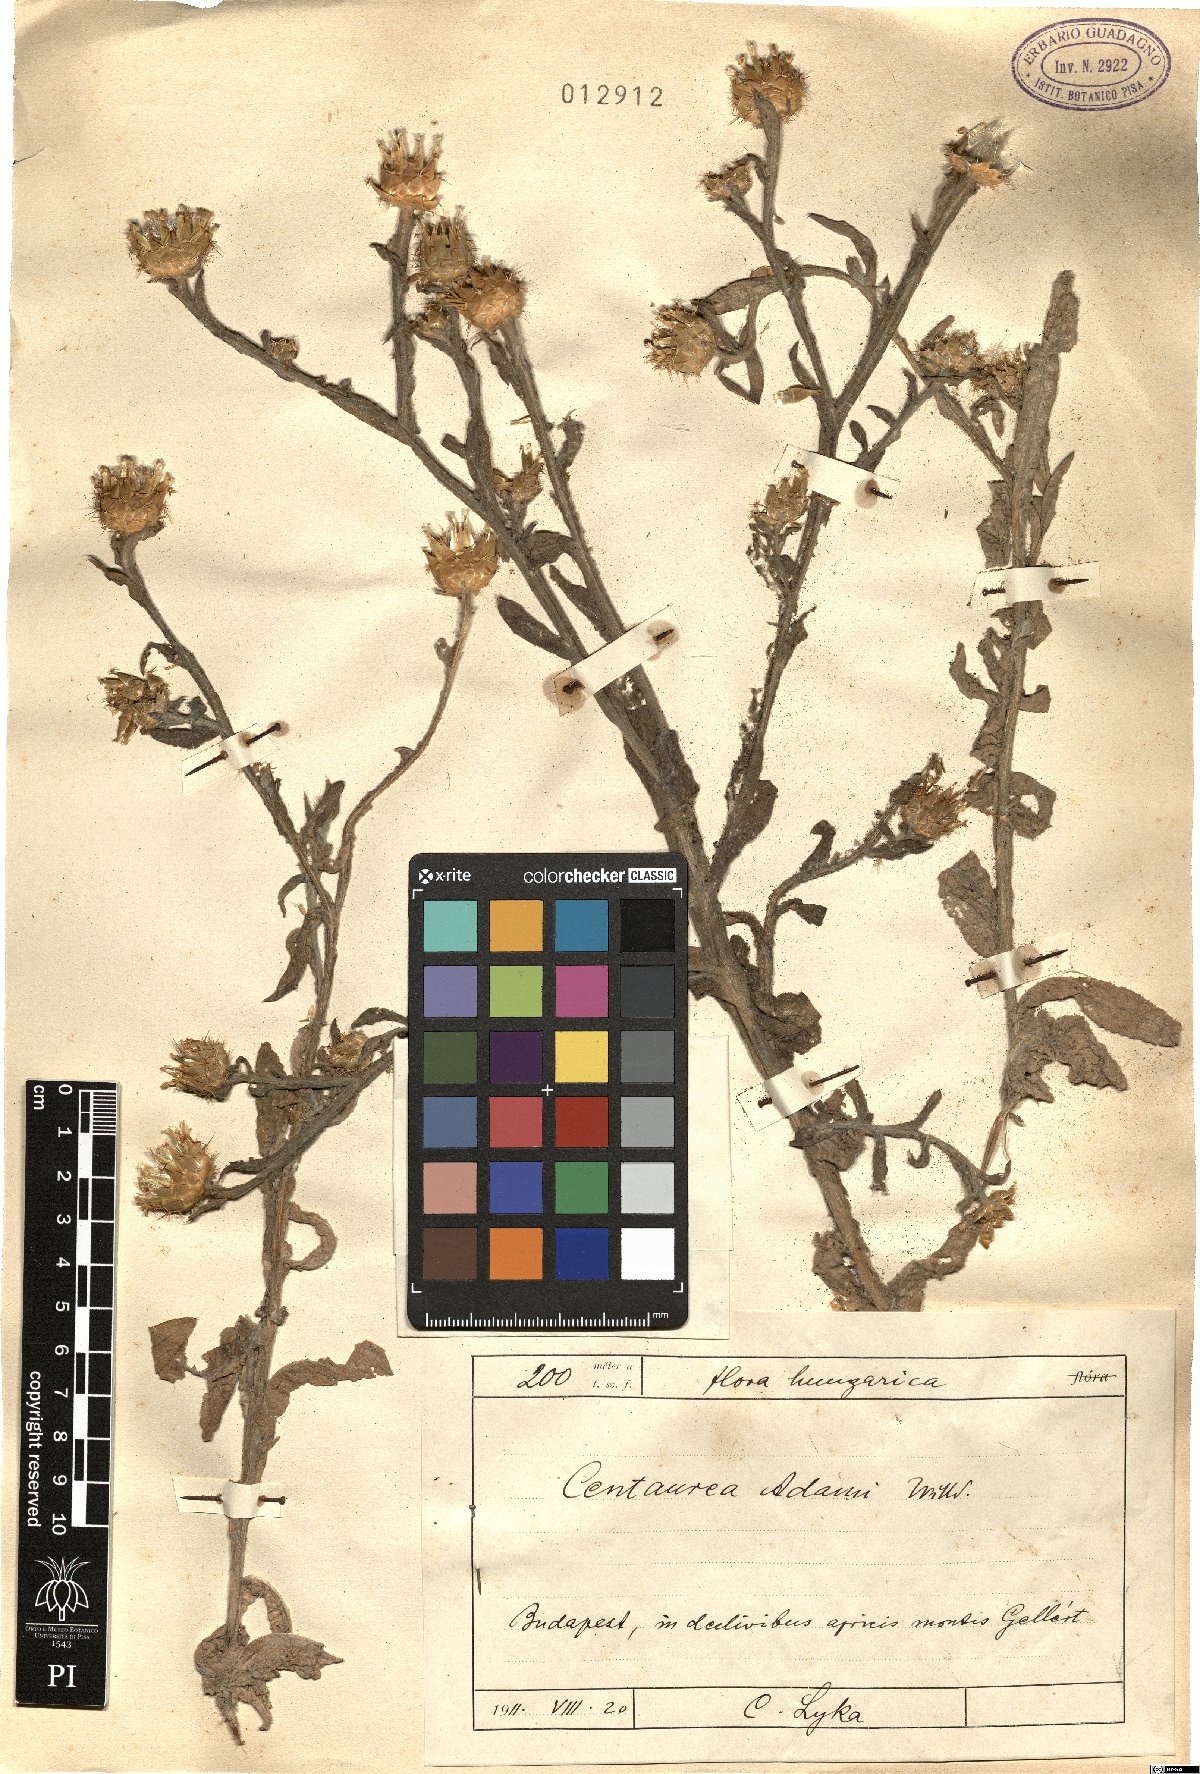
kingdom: Plantae
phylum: Tracheophyta
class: Magnoliopsida
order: Asterales
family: Asteraceae
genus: Centaurea
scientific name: Centaurea adami
